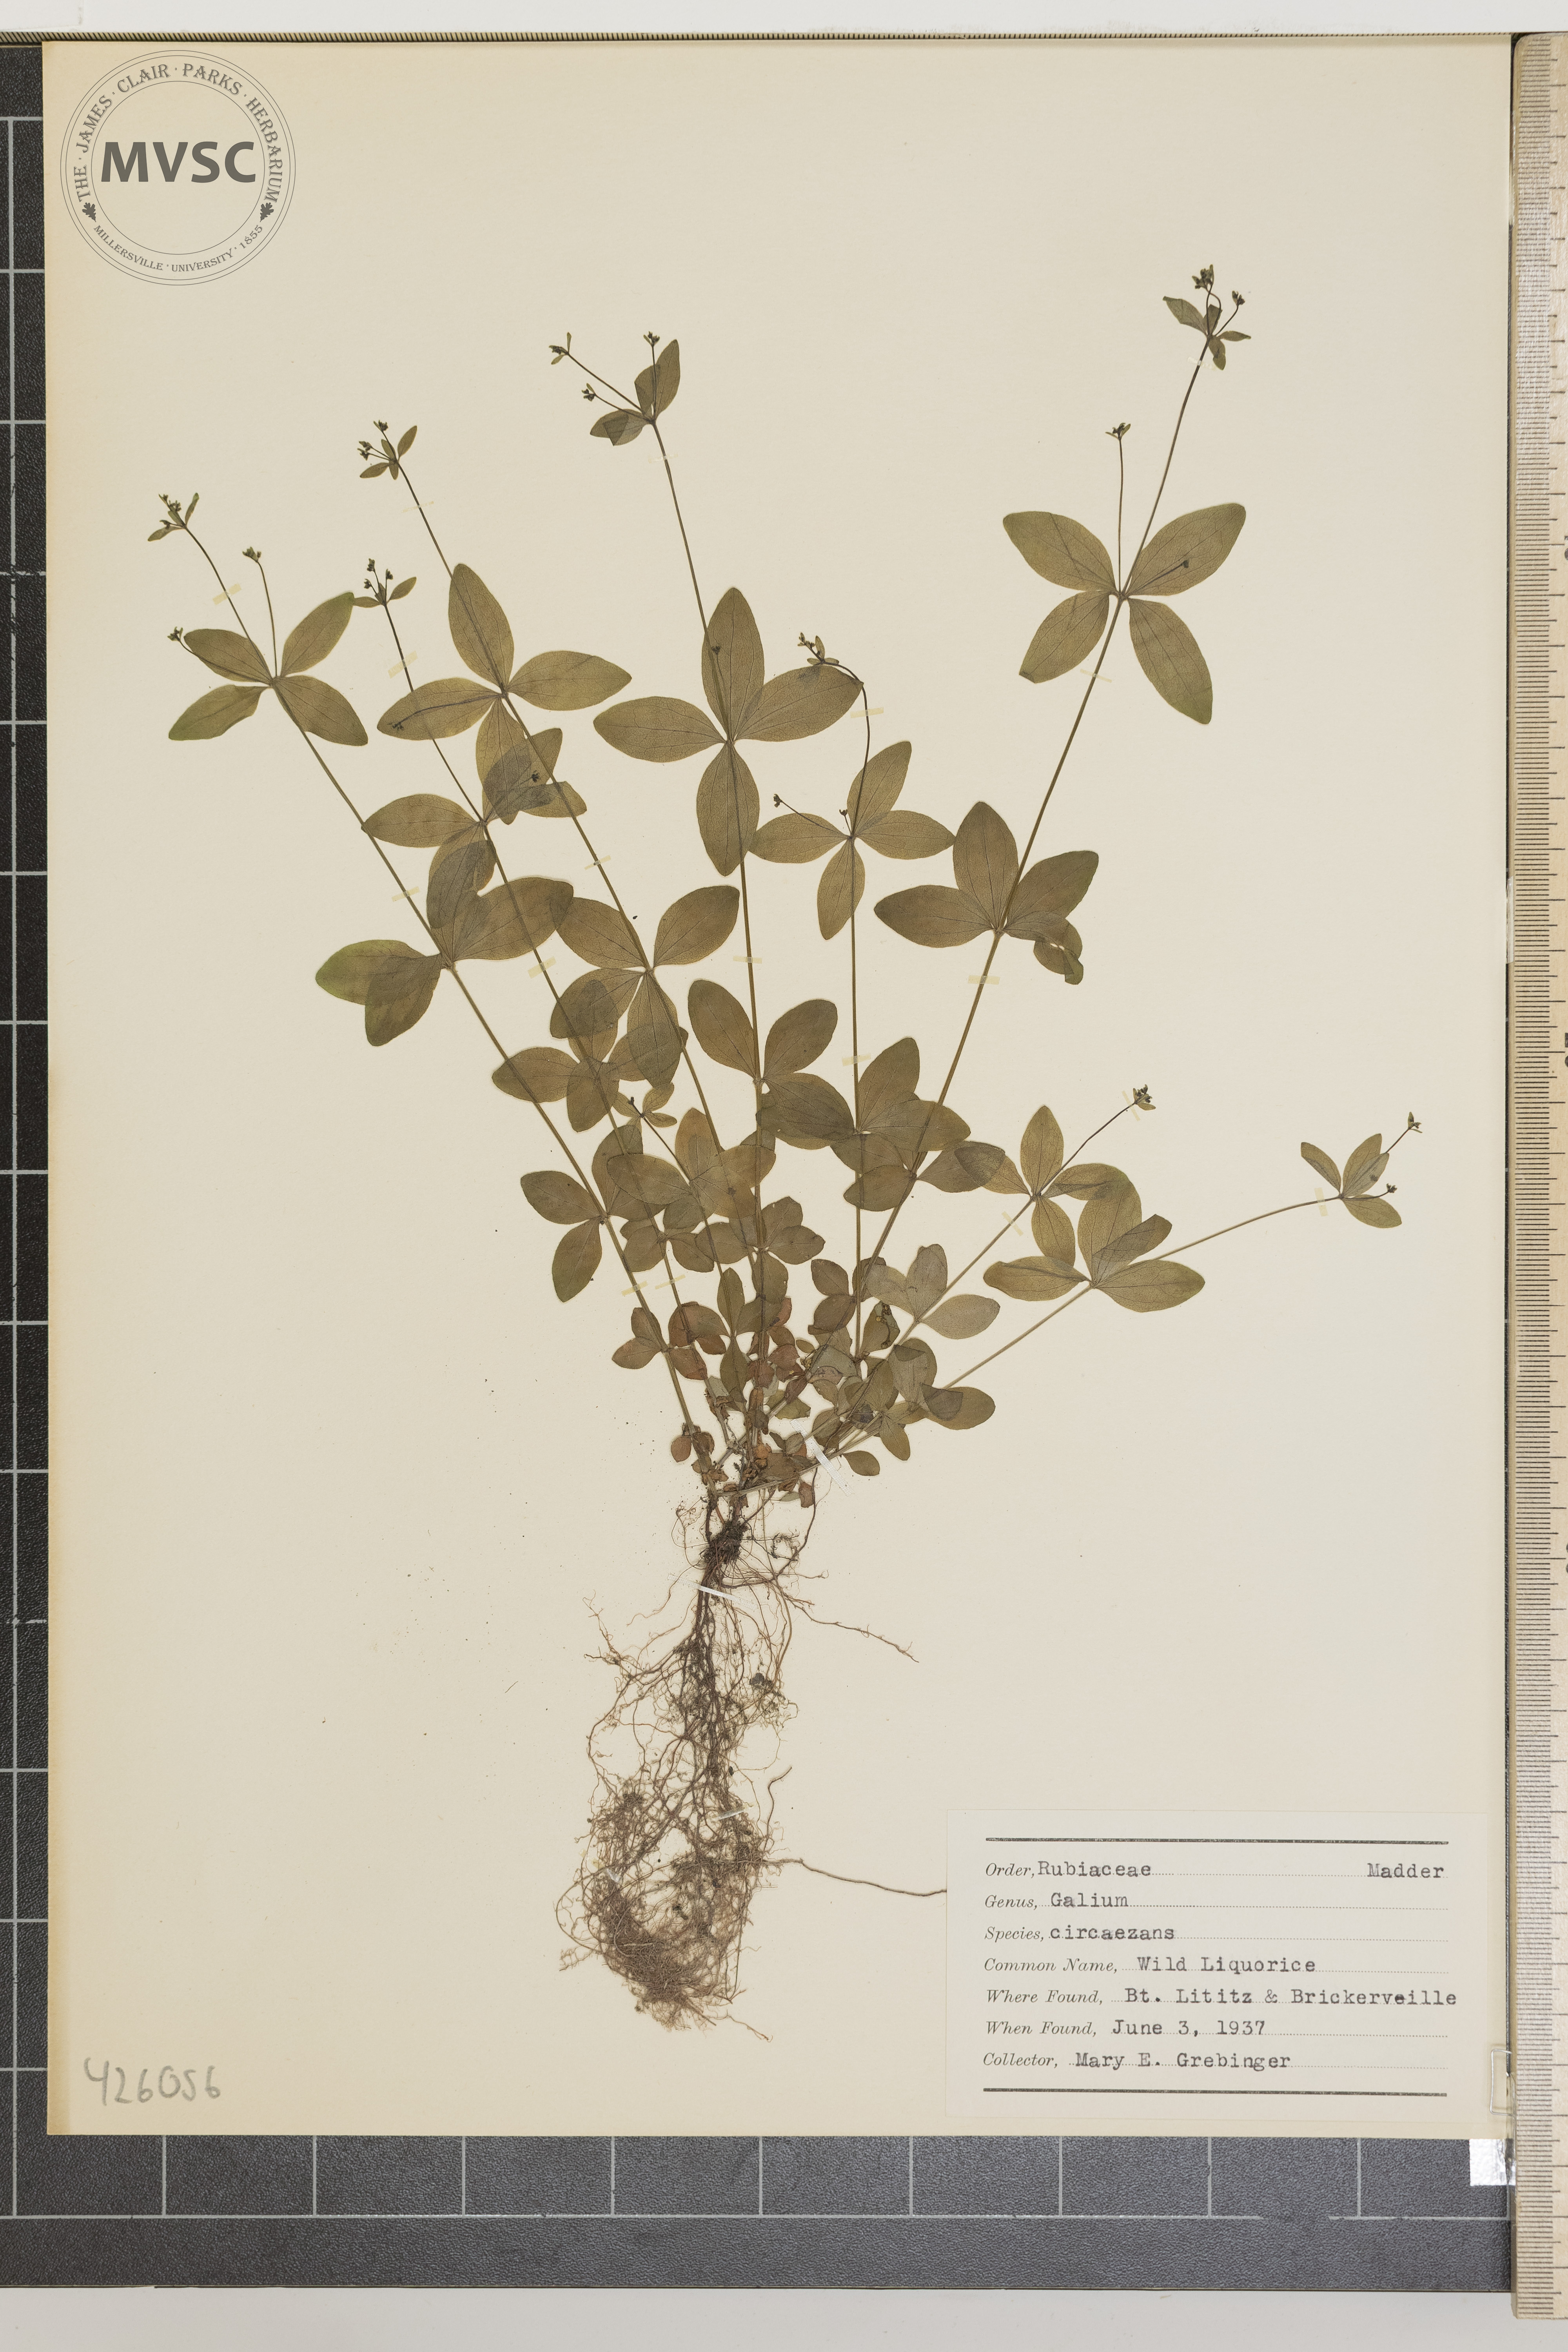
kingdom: Plantae
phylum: Tracheophyta
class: Magnoliopsida
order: Gentianales
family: Rubiaceae
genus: Galium
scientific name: Galium circaezans
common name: Wild licorice
